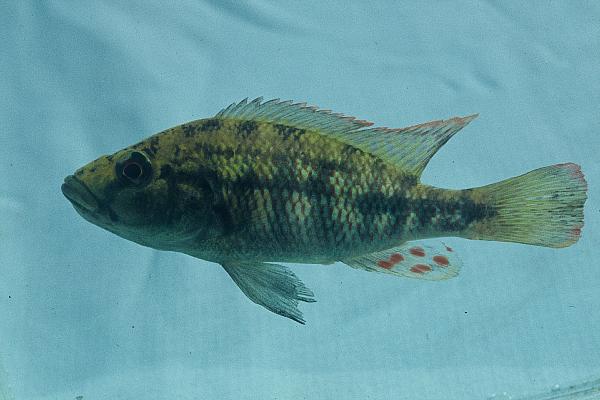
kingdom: Animalia
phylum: Chordata
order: Perciformes
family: Cichlidae
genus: Chetia
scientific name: Chetia brevis
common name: Orange-fringed largemouth
